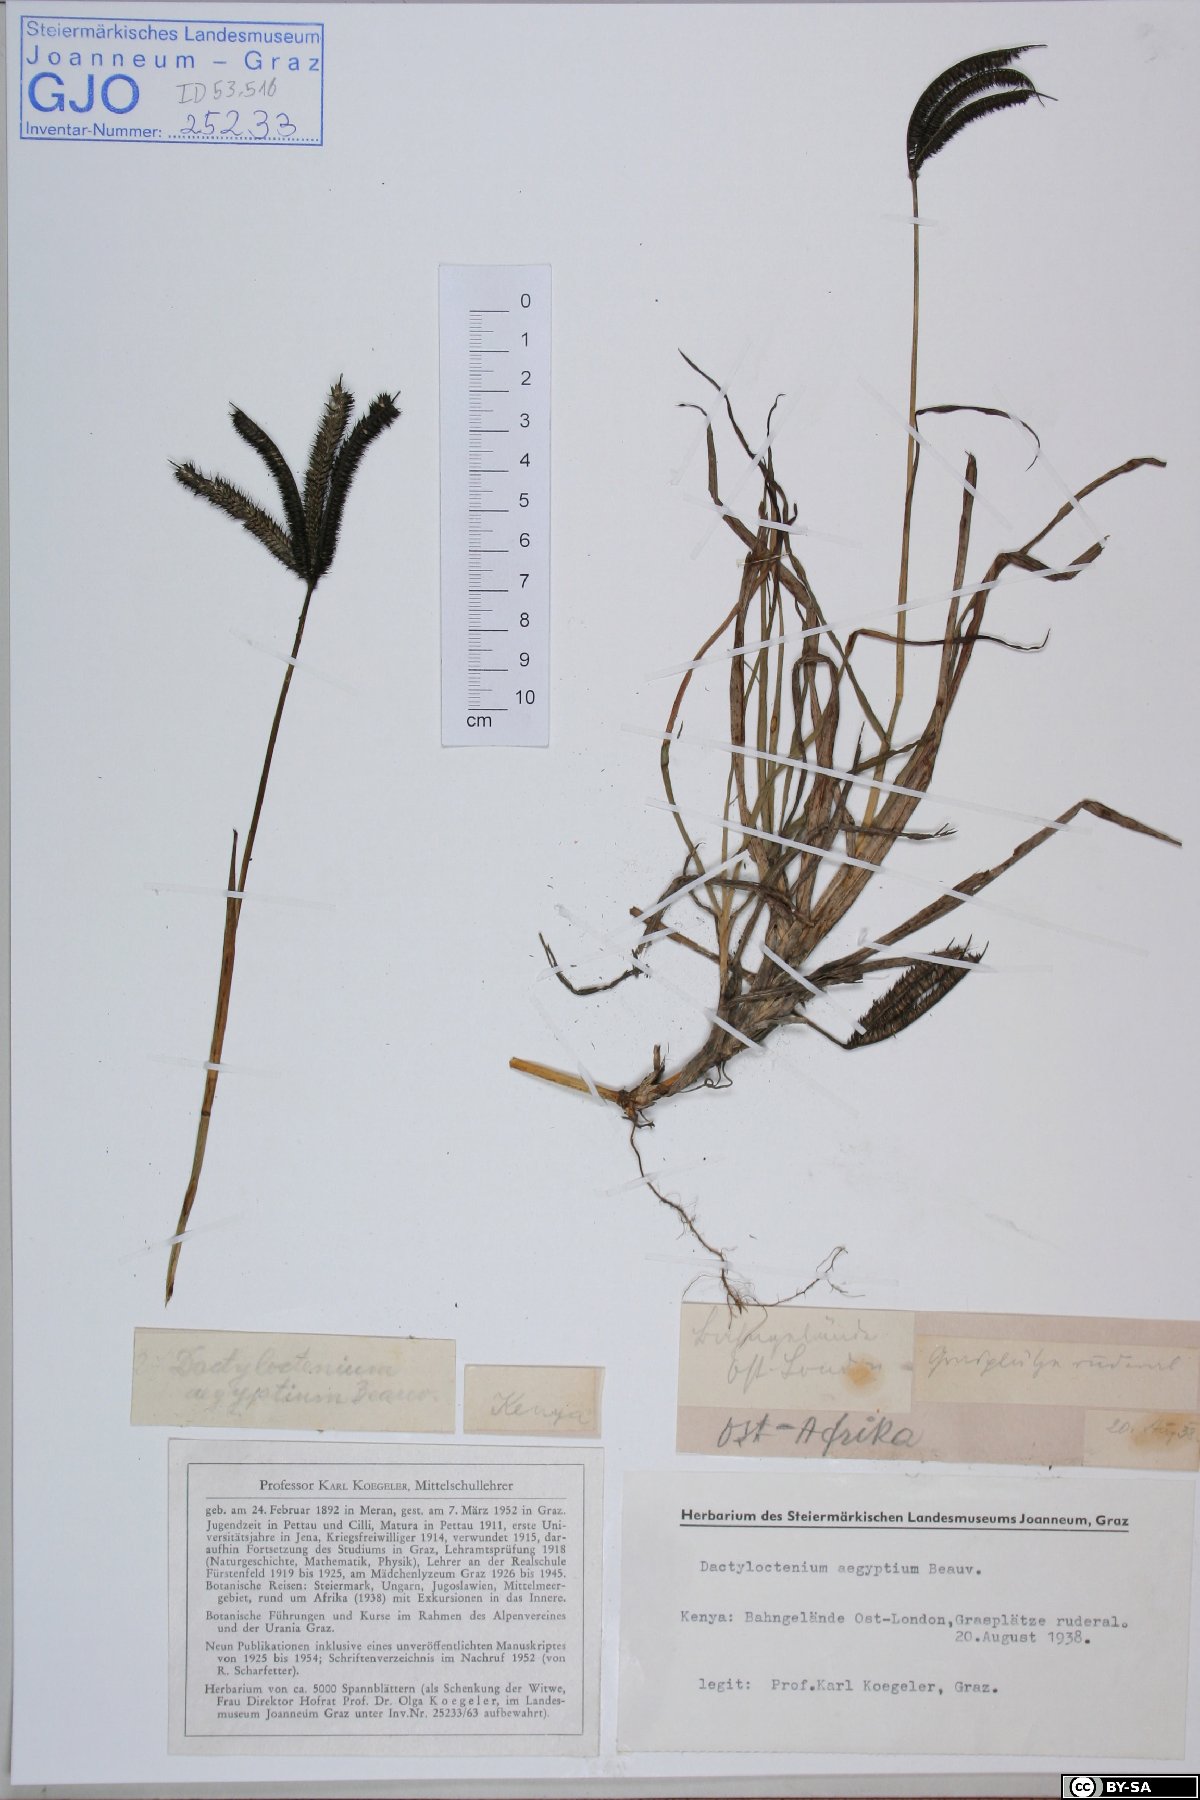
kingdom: Plantae
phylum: Tracheophyta
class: Liliopsida
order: Poales
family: Poaceae
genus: Dactyloctenium
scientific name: Dactyloctenium aegyptium
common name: Egyptian grass
